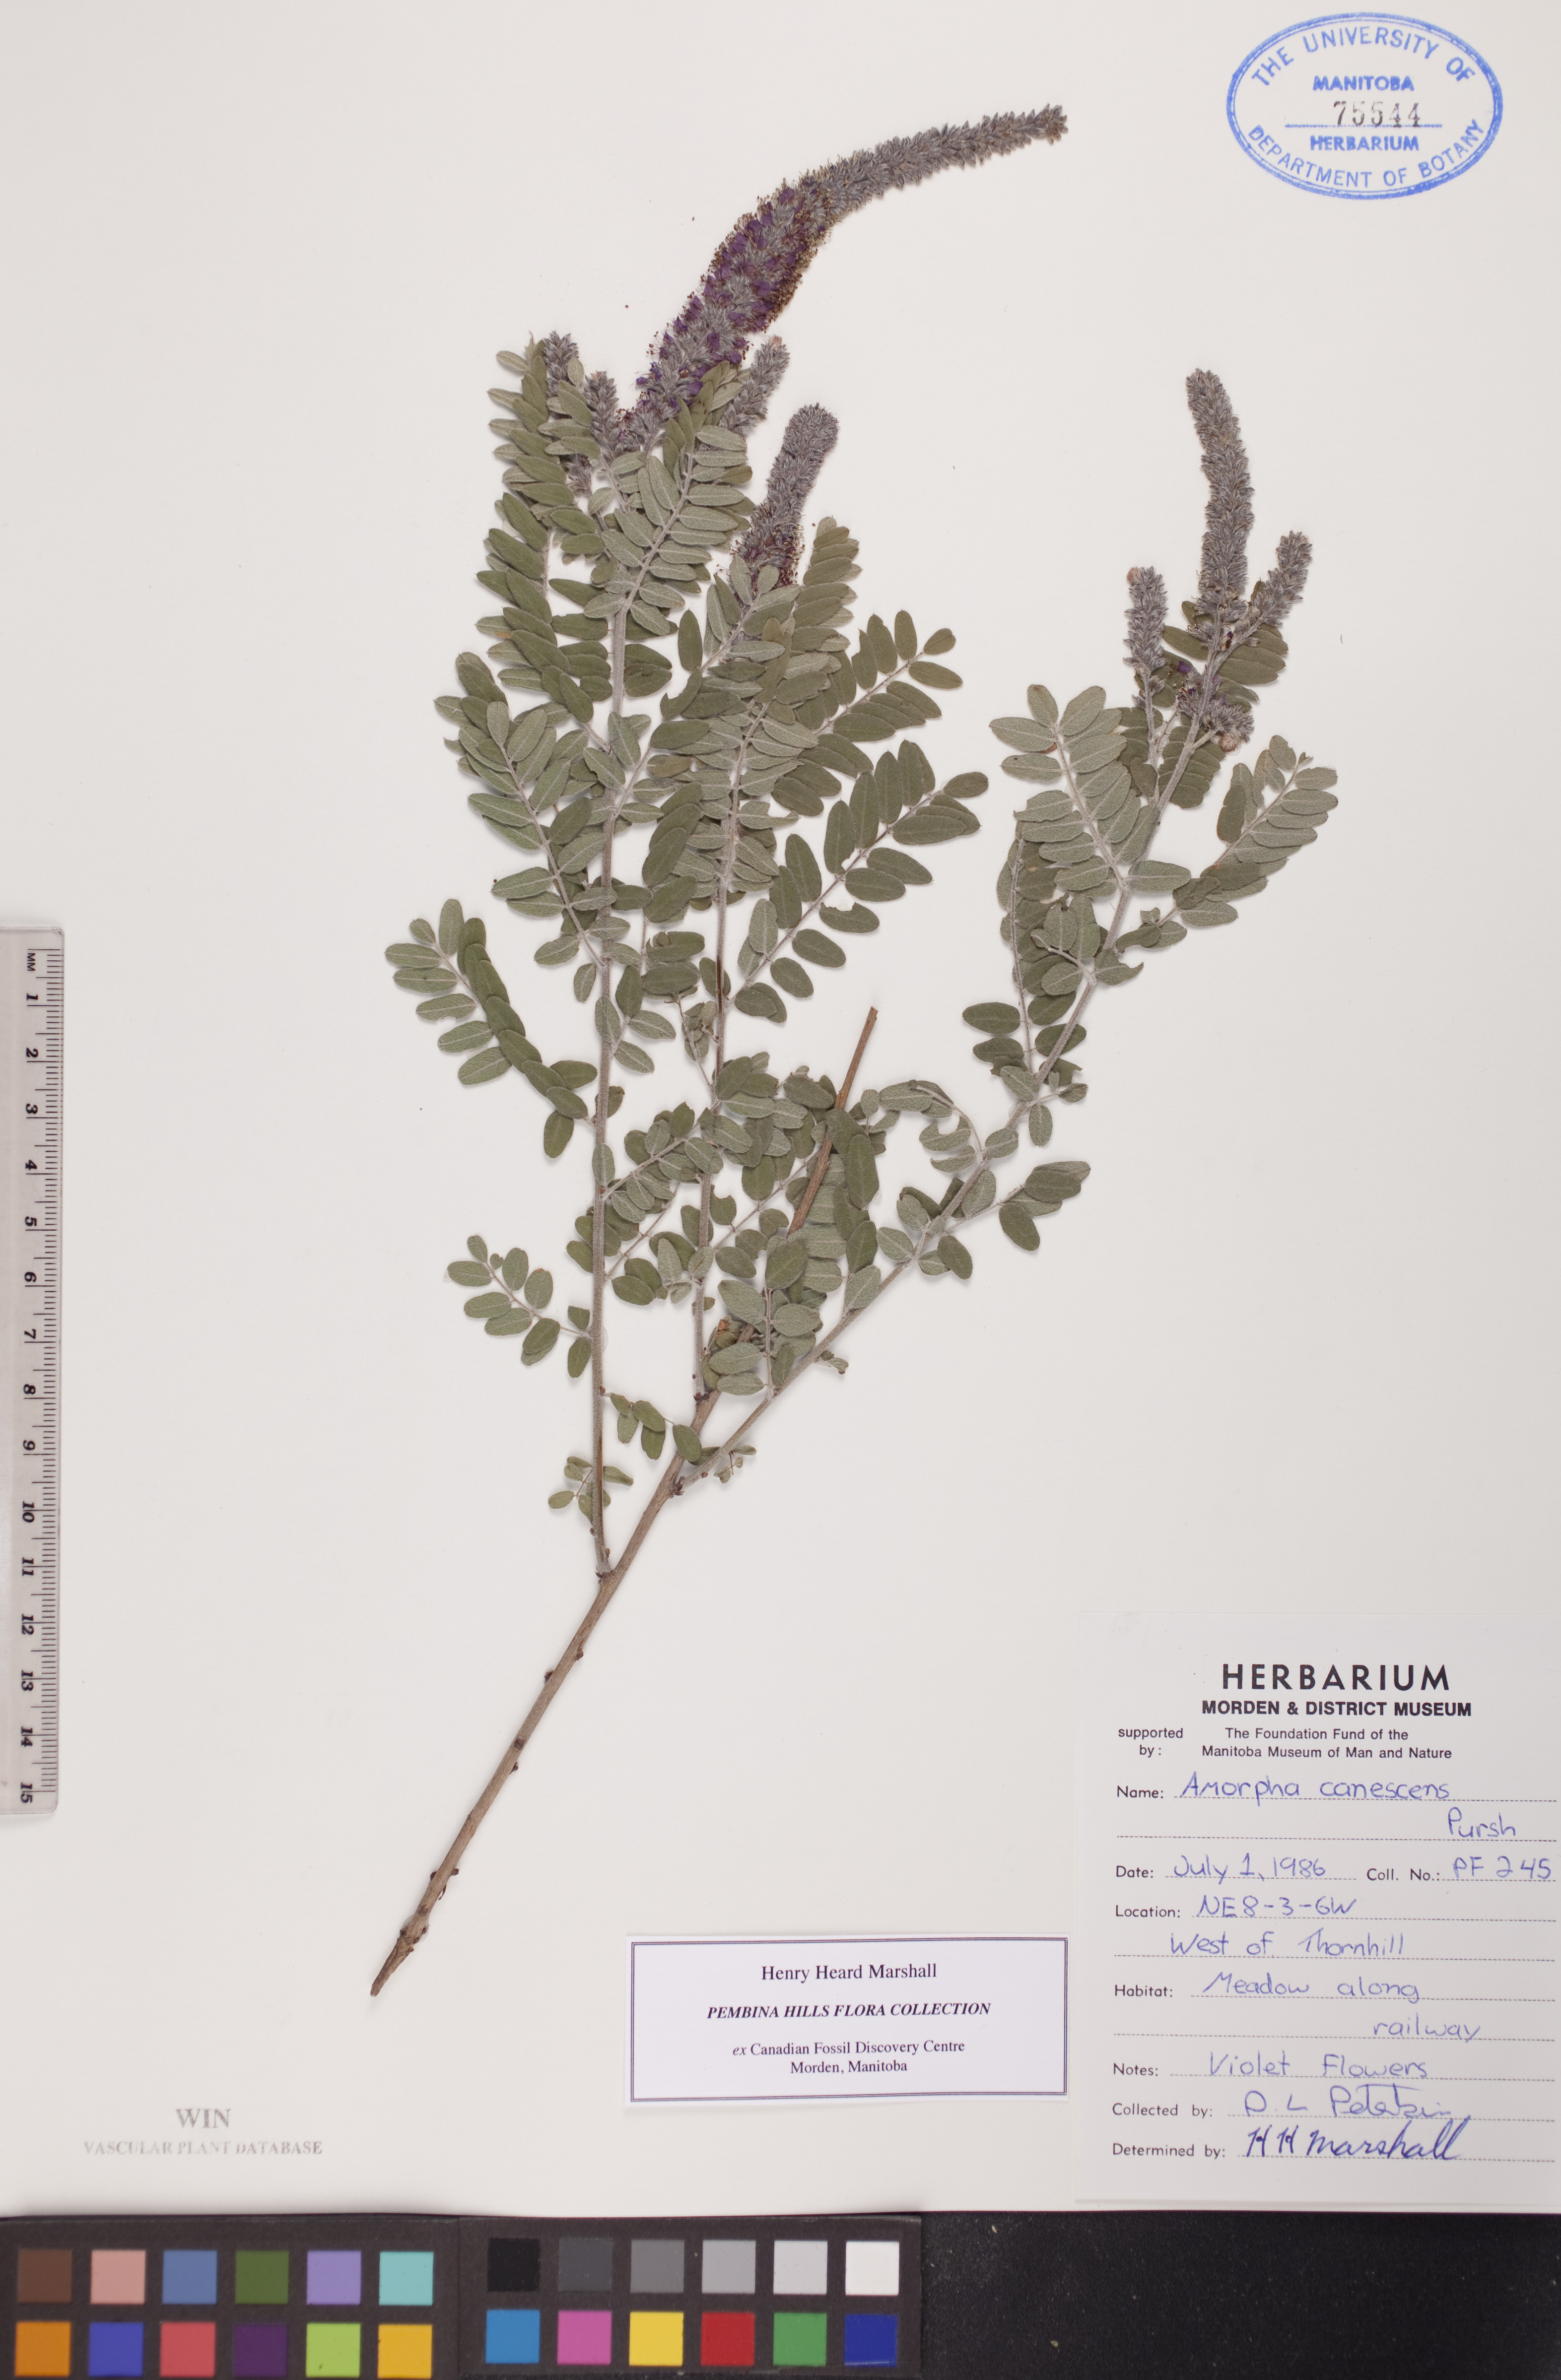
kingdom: Plantae
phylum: Tracheophyta
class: Magnoliopsida
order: Fabales
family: Fabaceae
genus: Amorpha
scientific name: Amorpha canescens
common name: Leadplant
